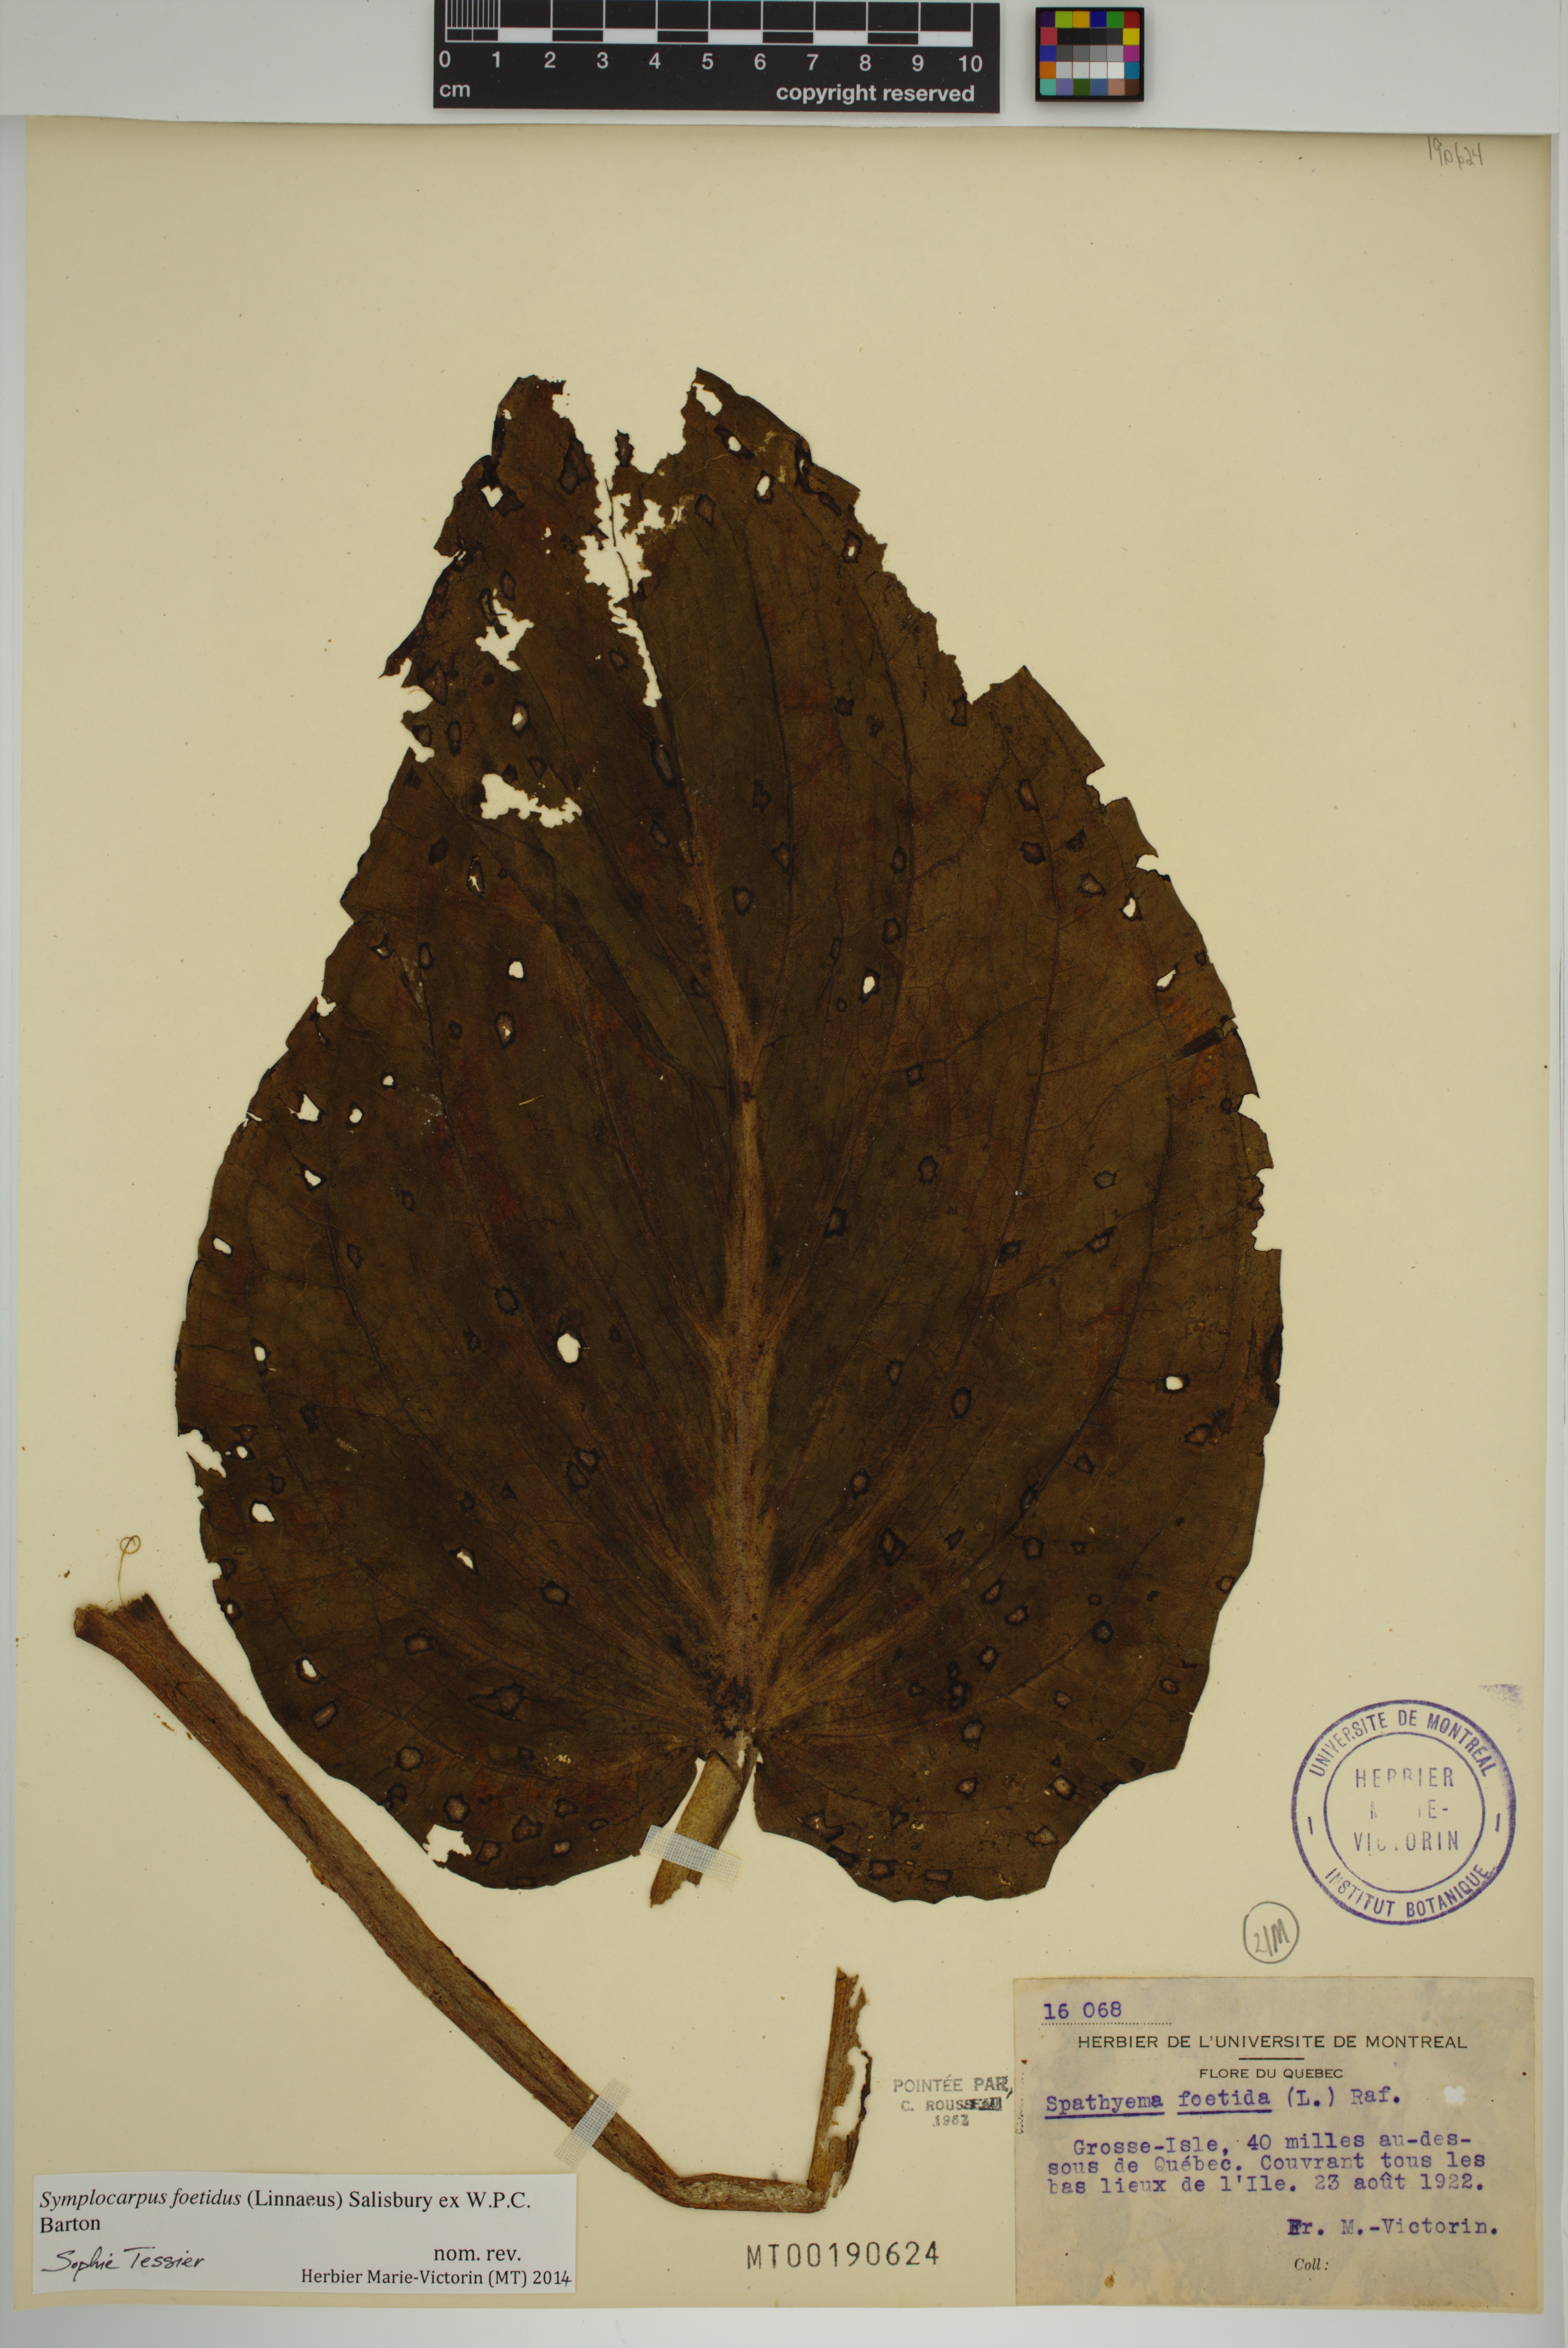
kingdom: Plantae
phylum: Tracheophyta
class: Liliopsida
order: Alismatales
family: Araceae
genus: Symplocarpus
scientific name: Symplocarpus foetidus
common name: Eastern skunk cabbage
